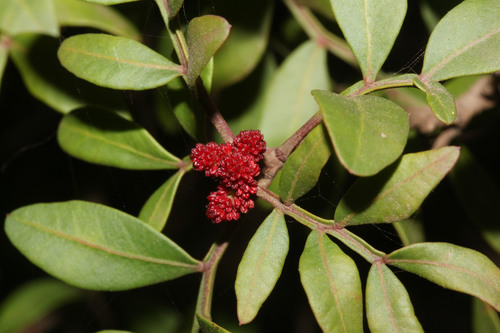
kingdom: Plantae
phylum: Tracheophyta
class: Magnoliopsida
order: Sapindales
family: Anacardiaceae
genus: Pistacia
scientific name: Pistacia lentiscus
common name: Lentisk
